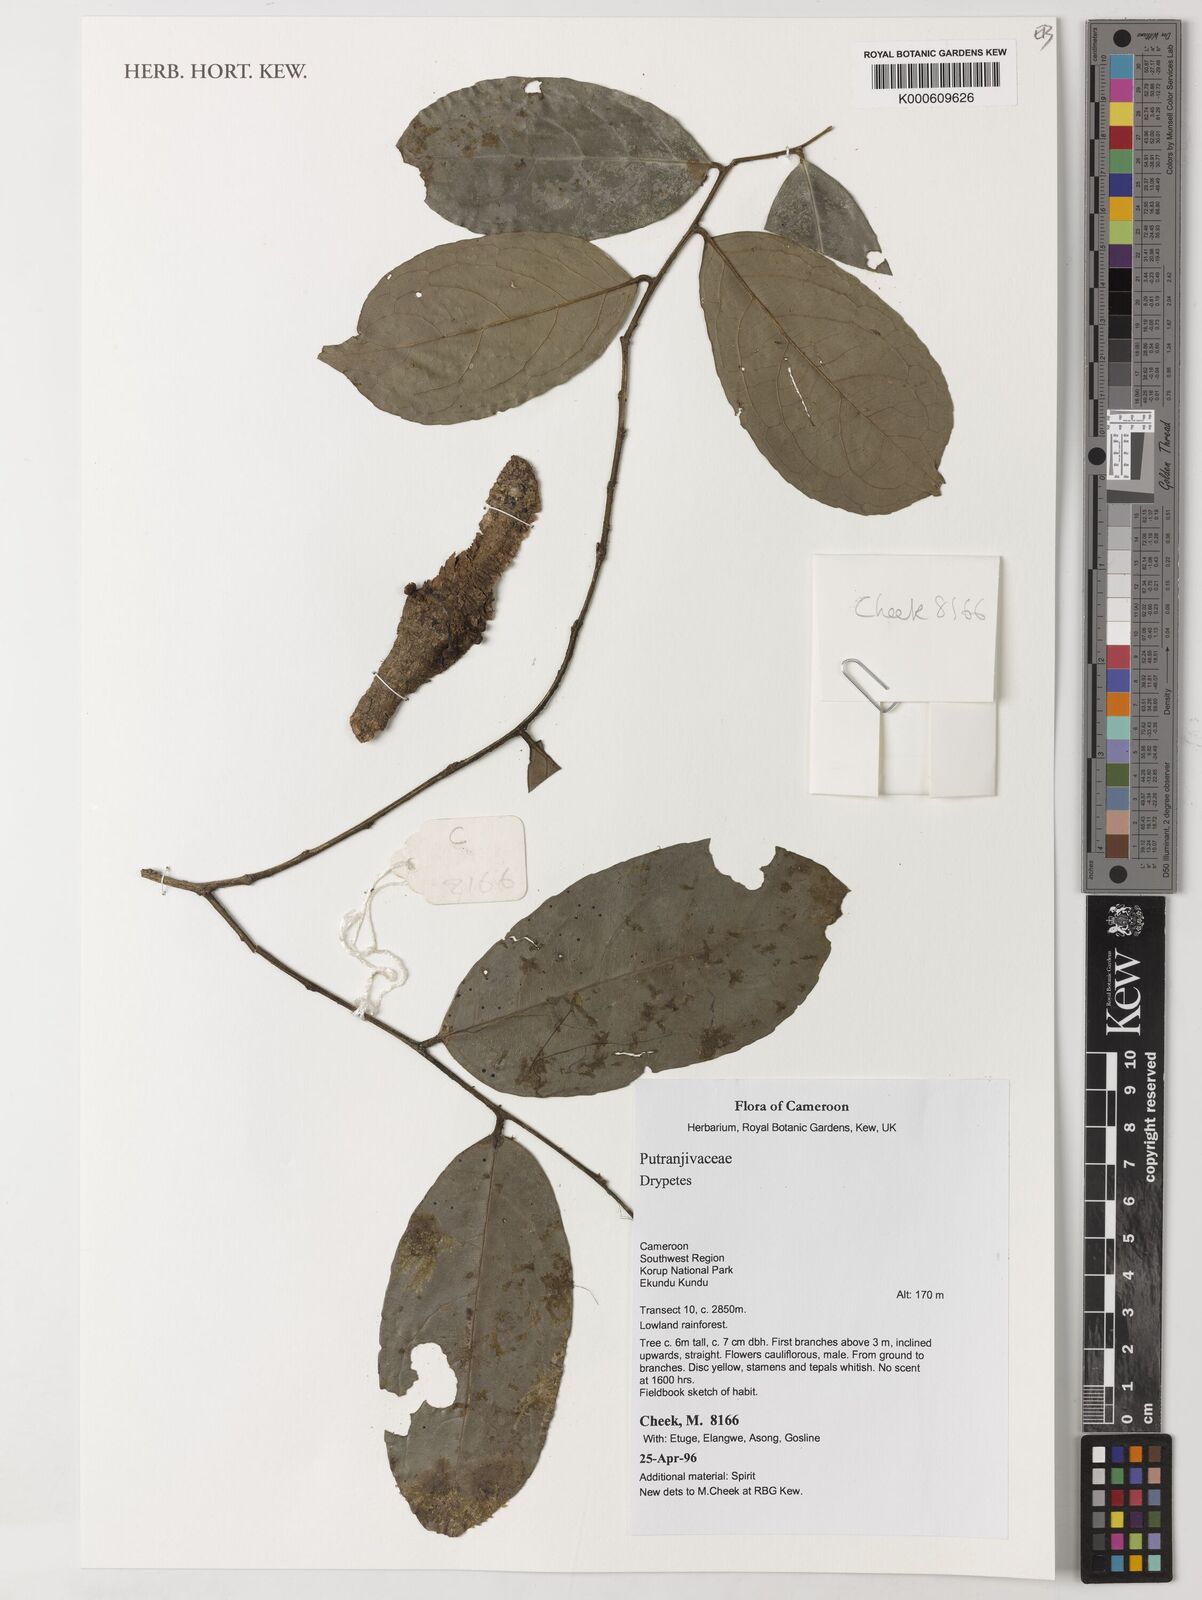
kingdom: Plantae
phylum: Tracheophyta
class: Magnoliopsida
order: Malpighiales
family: Putranjivaceae
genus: Drypetes
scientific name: Drypetes
